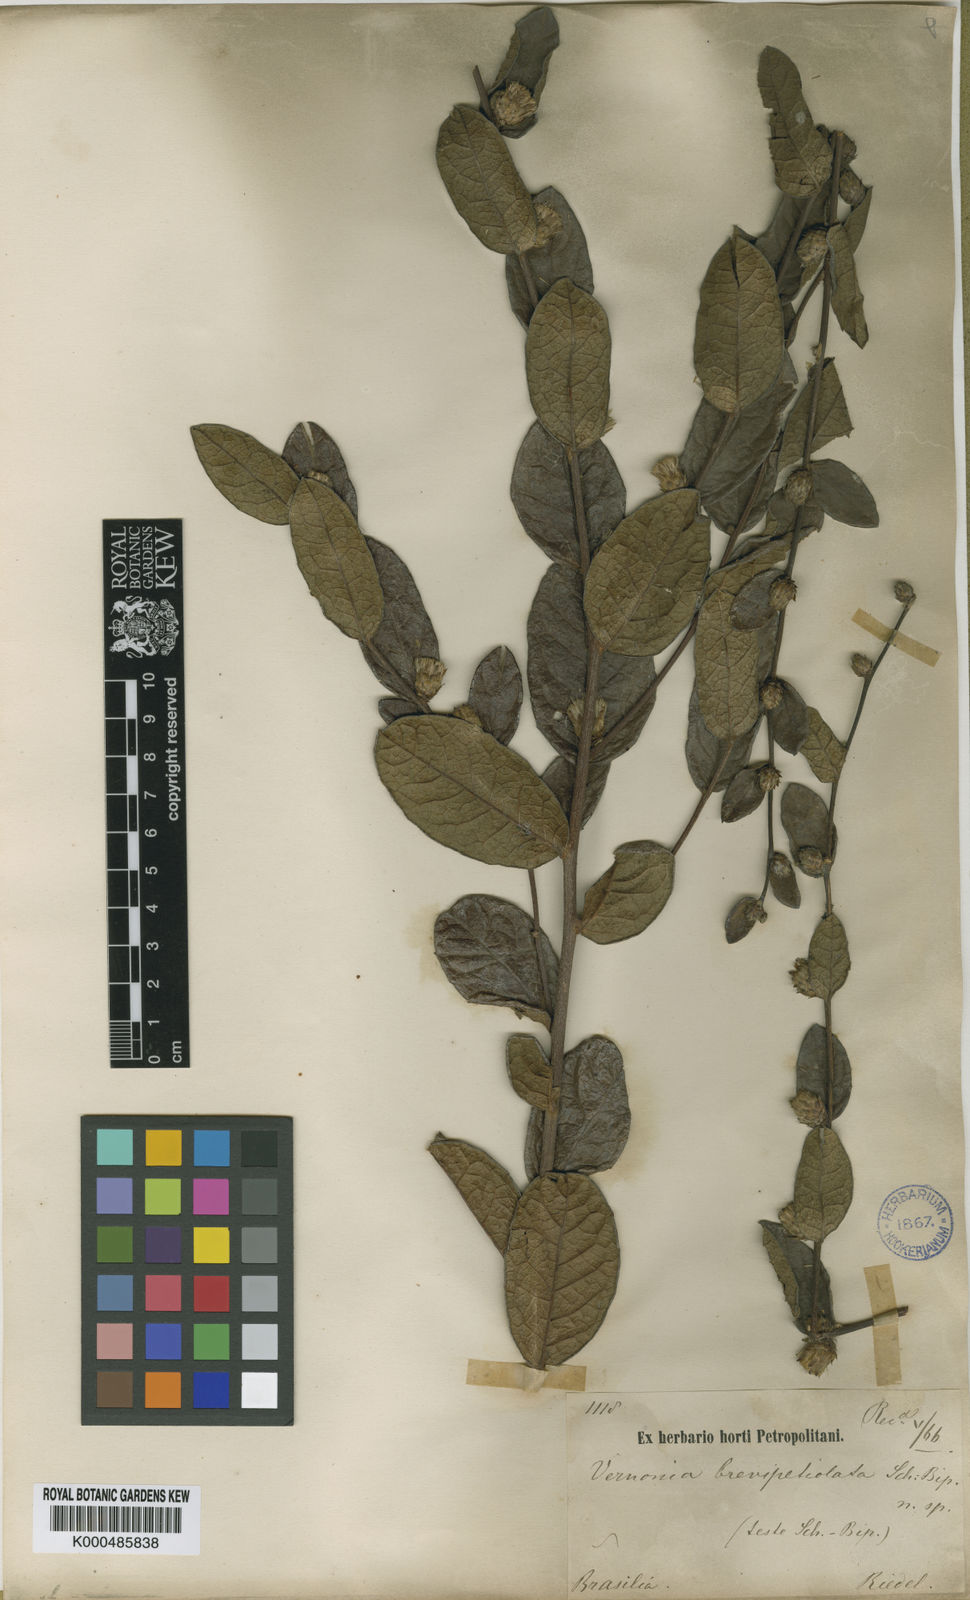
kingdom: Plantae
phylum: Tracheophyta
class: Magnoliopsida
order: Asterales
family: Asteraceae
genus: Lessingianthus
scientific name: Lessingianthus brevipetiolatus
